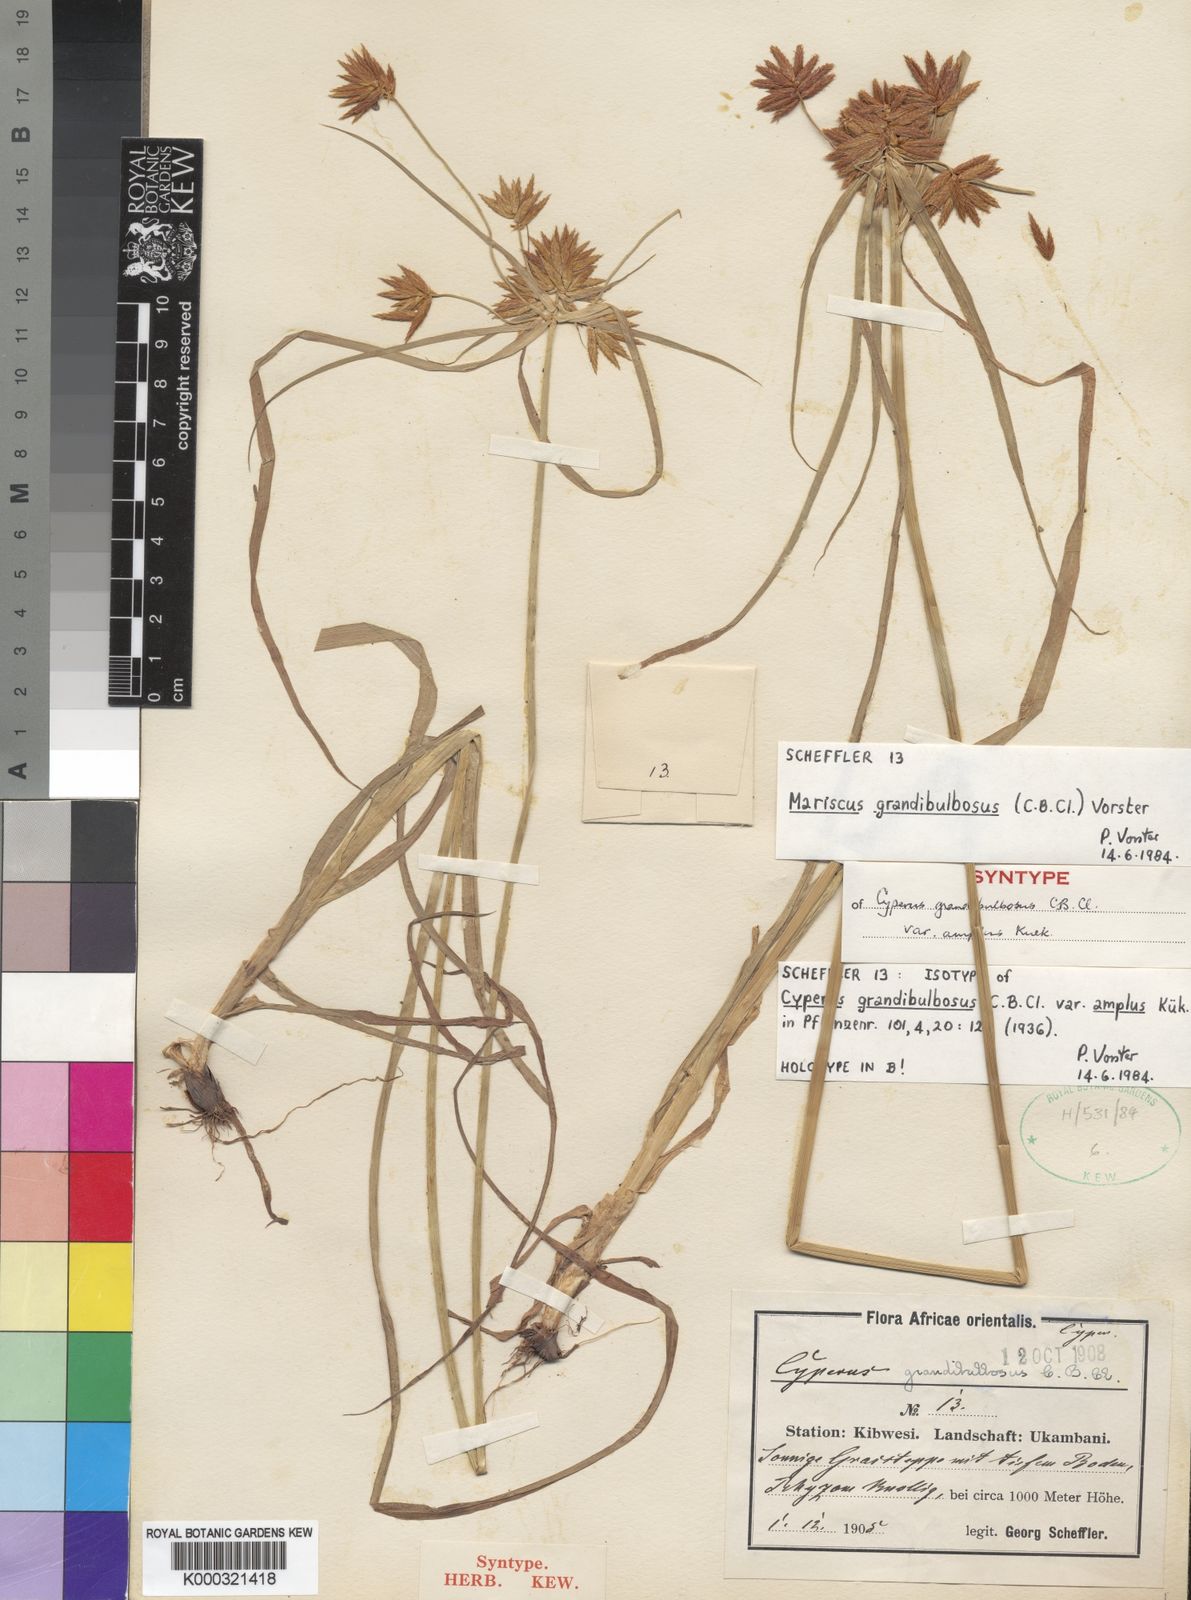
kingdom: Plantae
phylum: Tracheophyta
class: Liliopsida
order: Poales
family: Cyperaceae
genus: Cyperus
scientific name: Cyperus grandibulbosus
